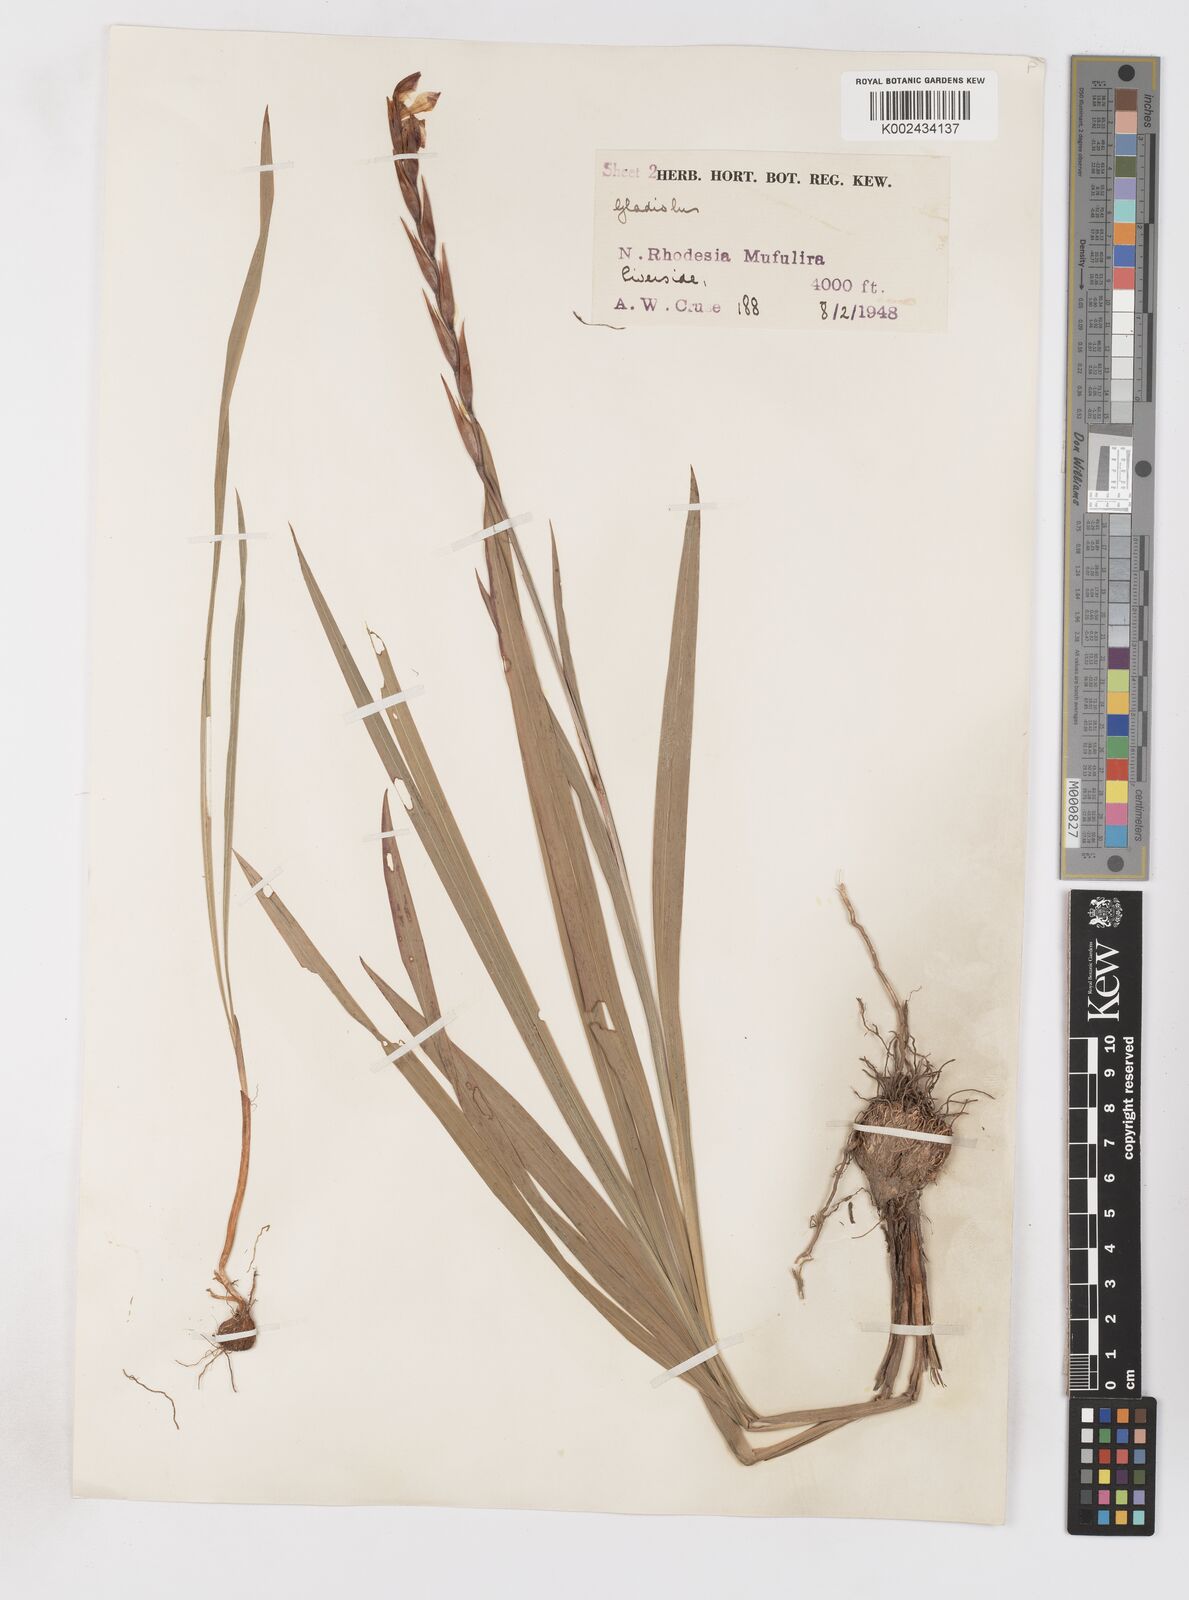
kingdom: Plantae
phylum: Tracheophyta
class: Liliopsida
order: Asparagales
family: Iridaceae
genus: Gladiolus
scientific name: Gladiolus gregarius
